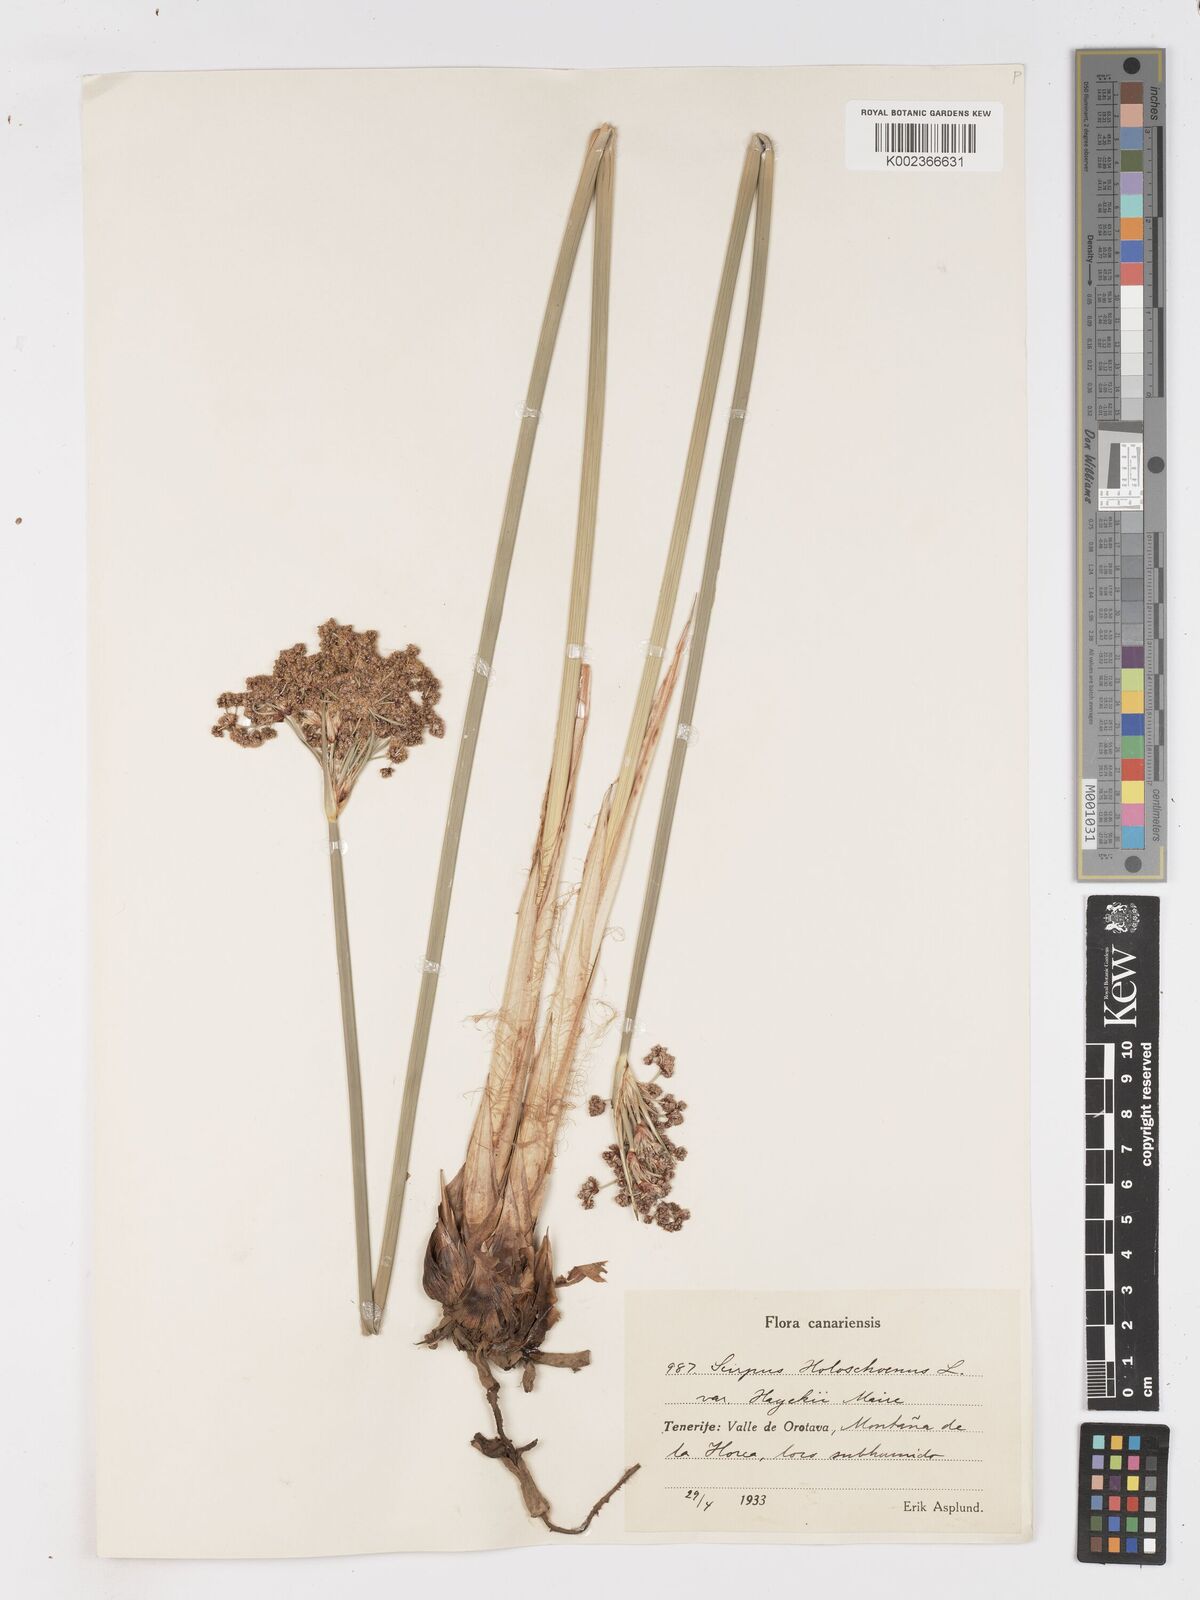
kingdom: Plantae
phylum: Tracheophyta
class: Liliopsida
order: Poales
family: Cyperaceae
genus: Scirpoides
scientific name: Scirpoides holoschoenus
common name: Round-headed club-rush
